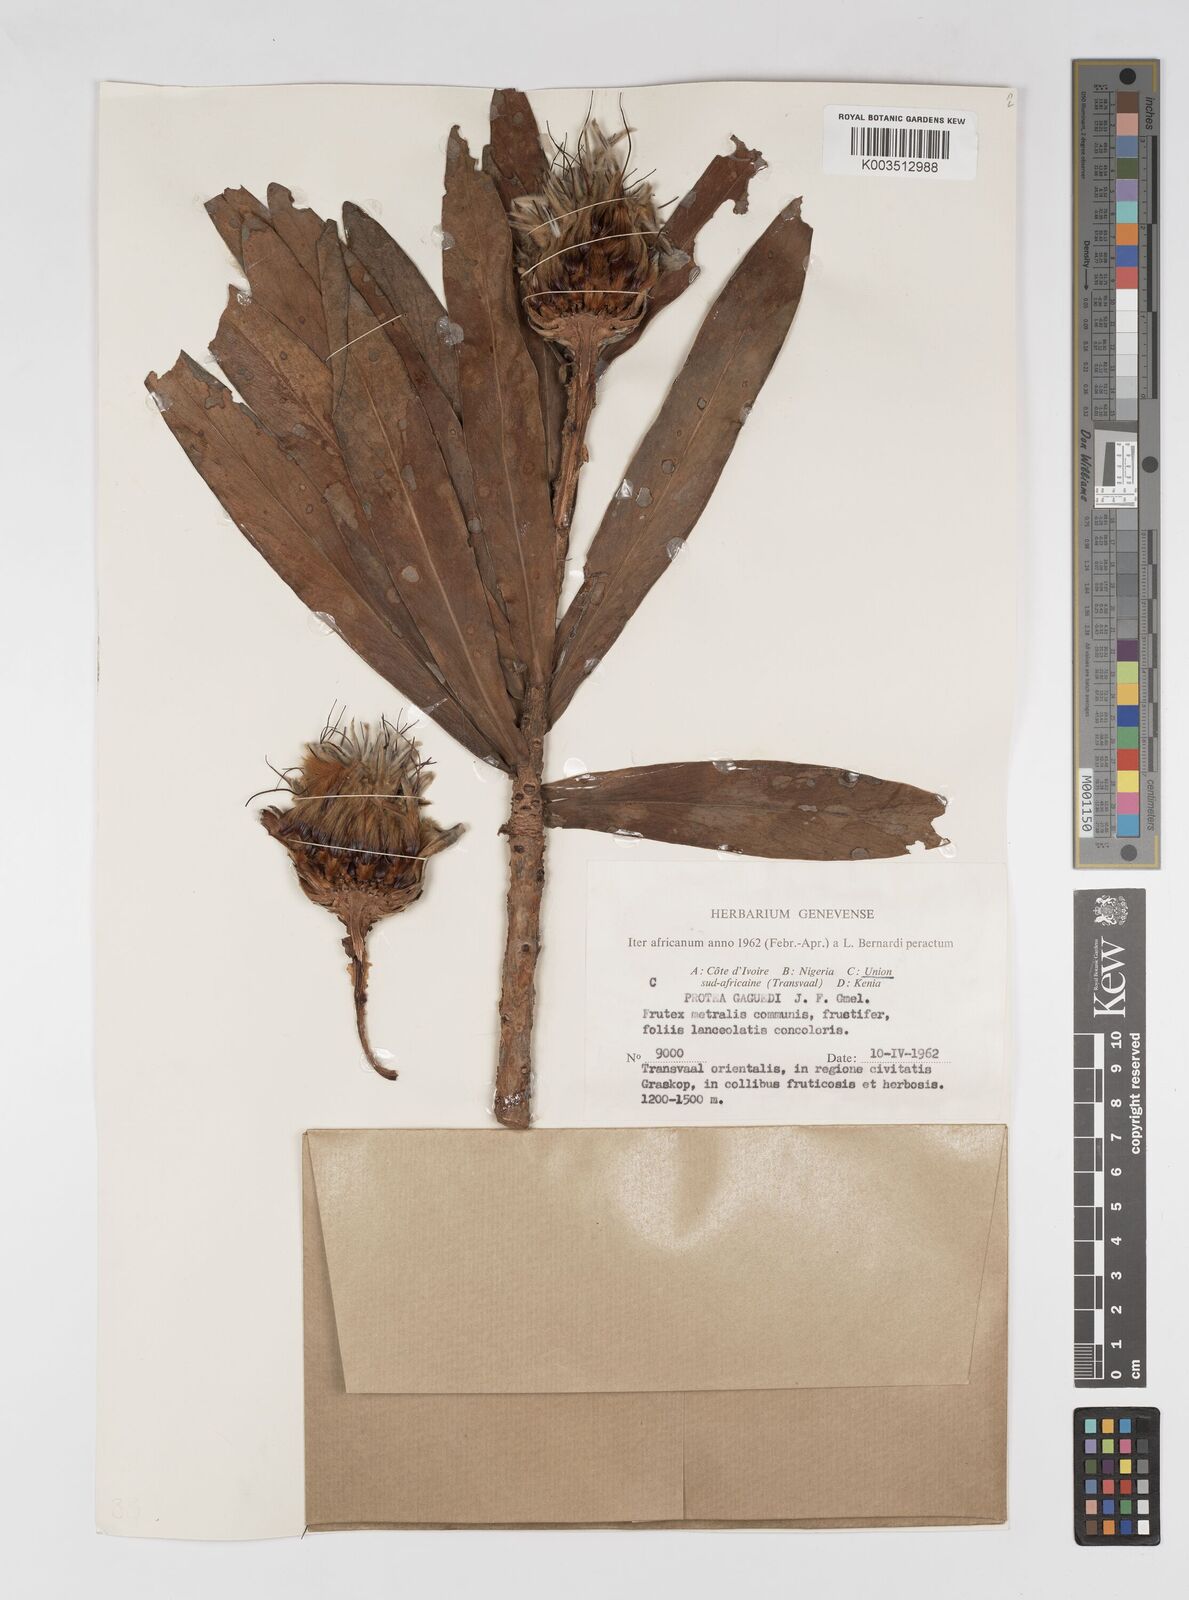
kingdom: Plantae
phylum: Tracheophyta
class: Magnoliopsida
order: Proteales
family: Proteaceae
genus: Protea
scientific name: Protea gaguedi
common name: African protea
